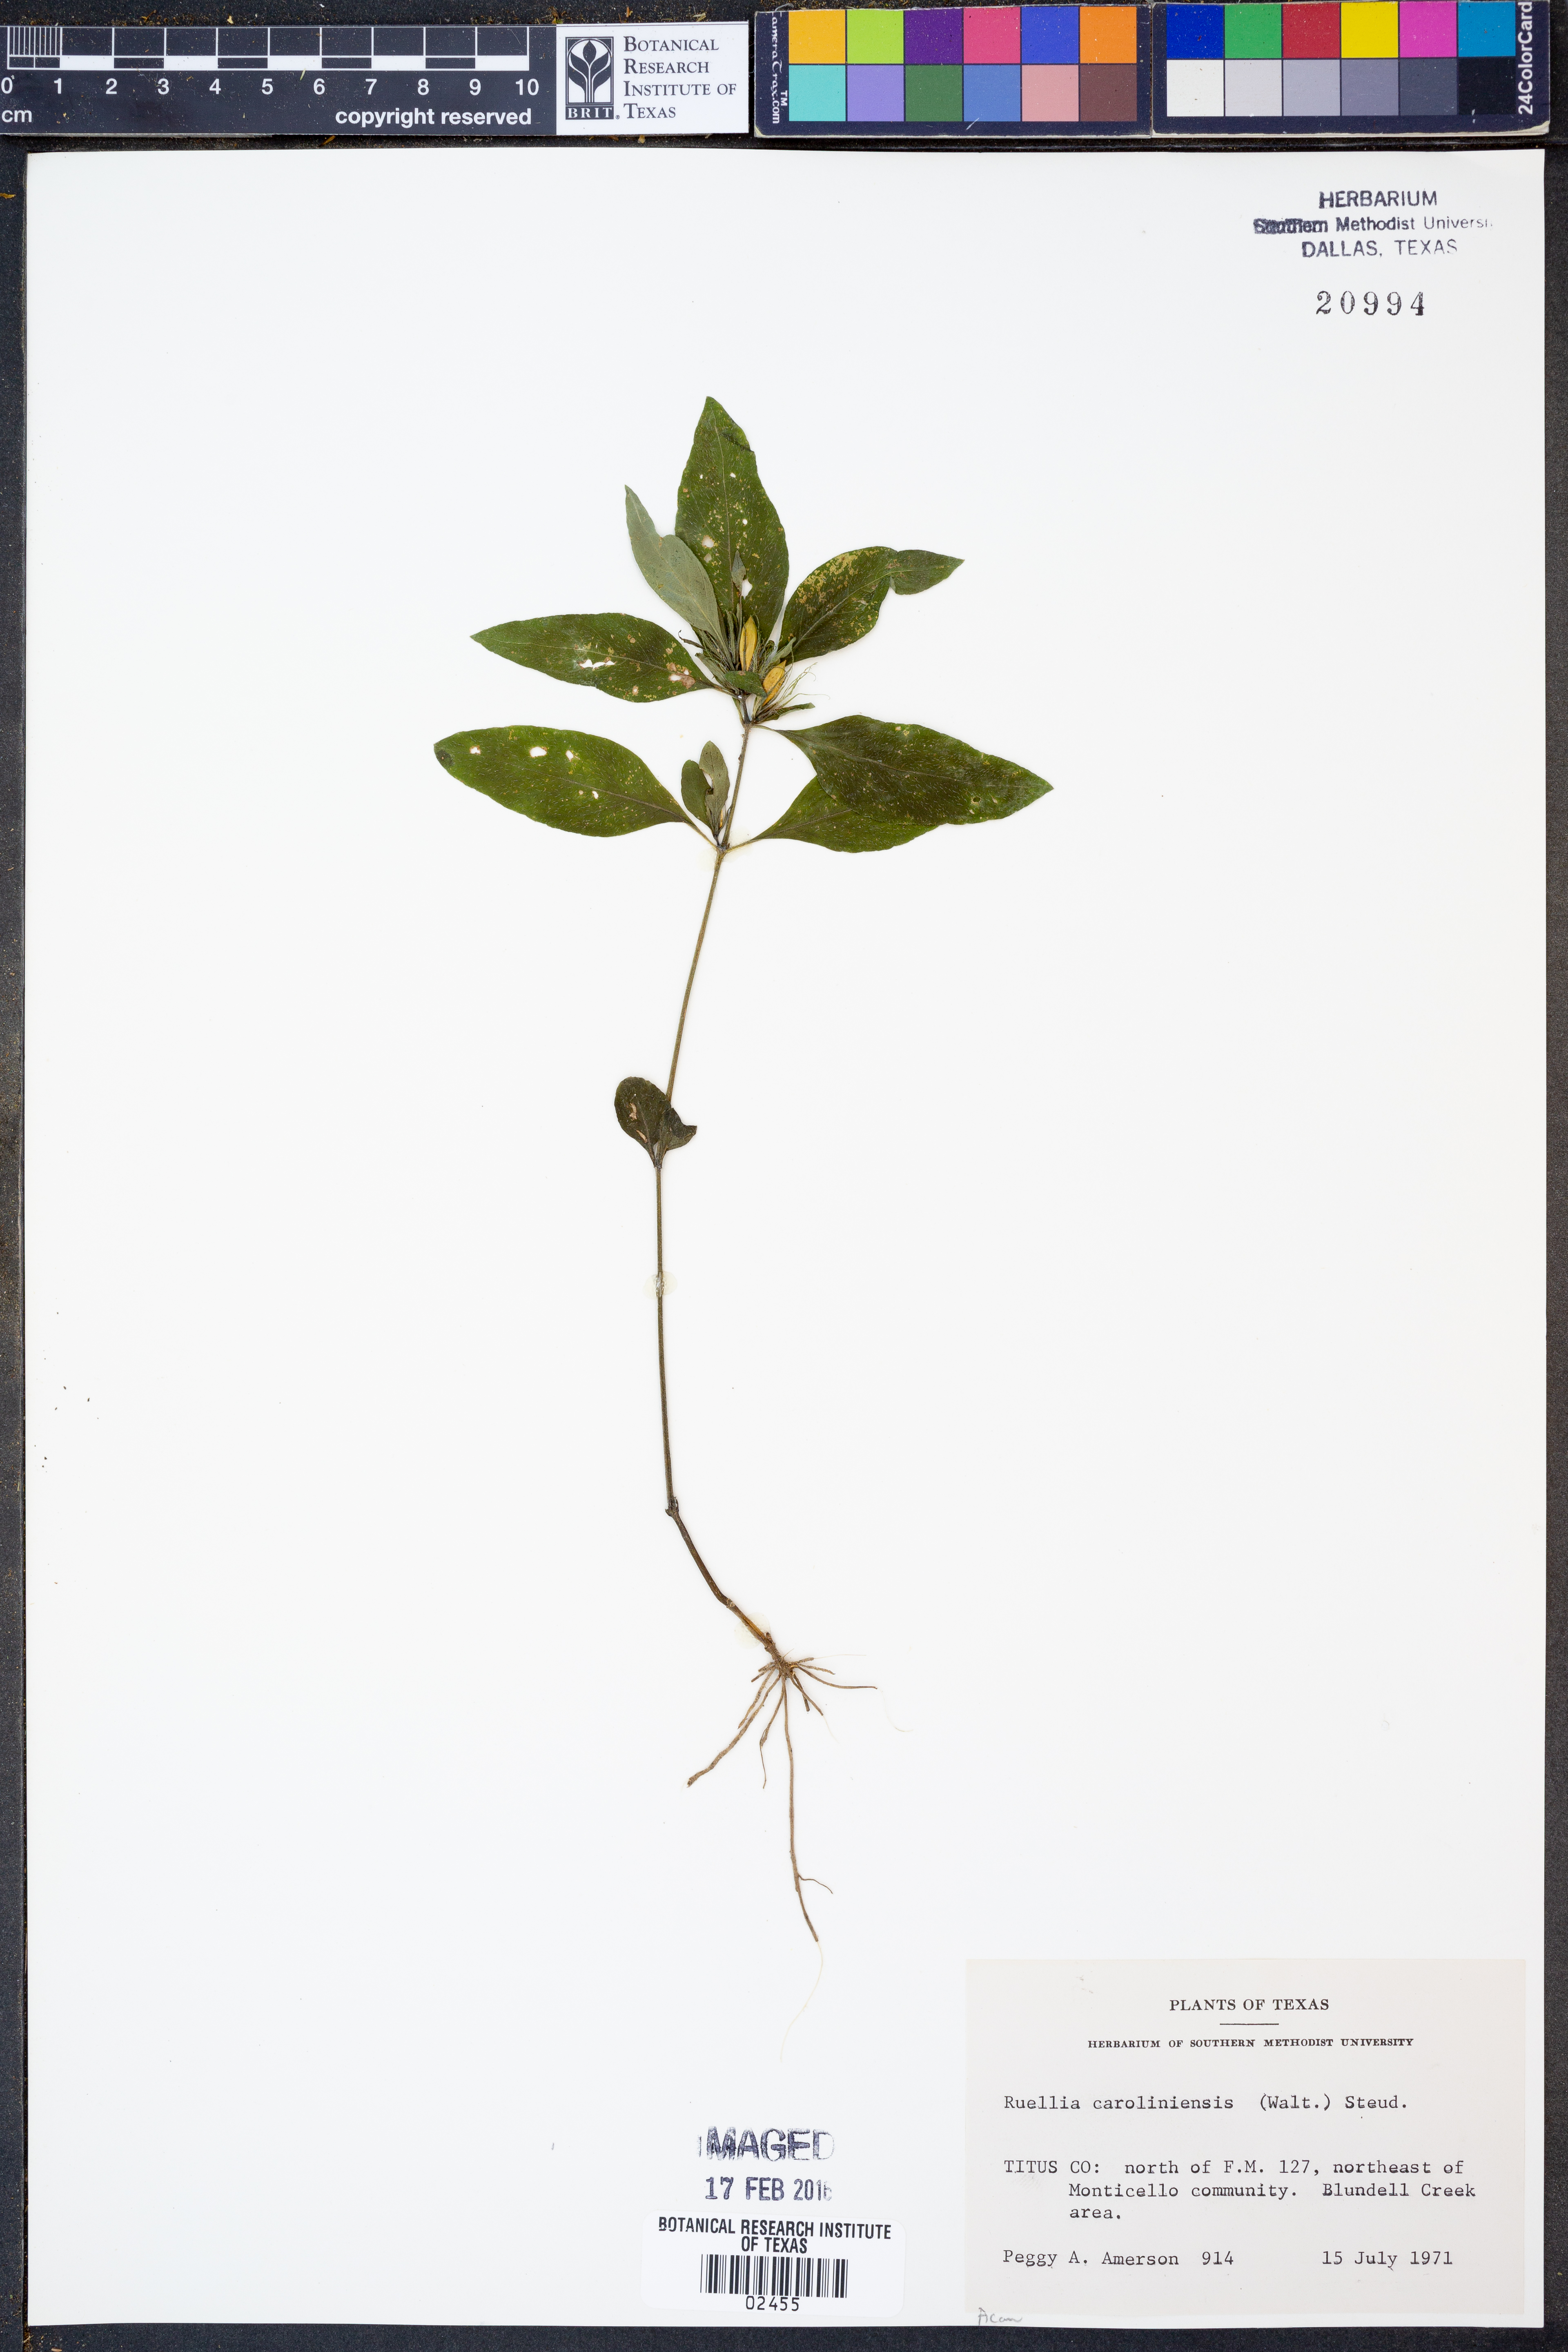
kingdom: Plantae
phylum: Tracheophyta
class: Magnoliopsida
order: Lamiales
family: Acanthaceae
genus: Ruellia
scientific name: Ruellia caroliniensis
